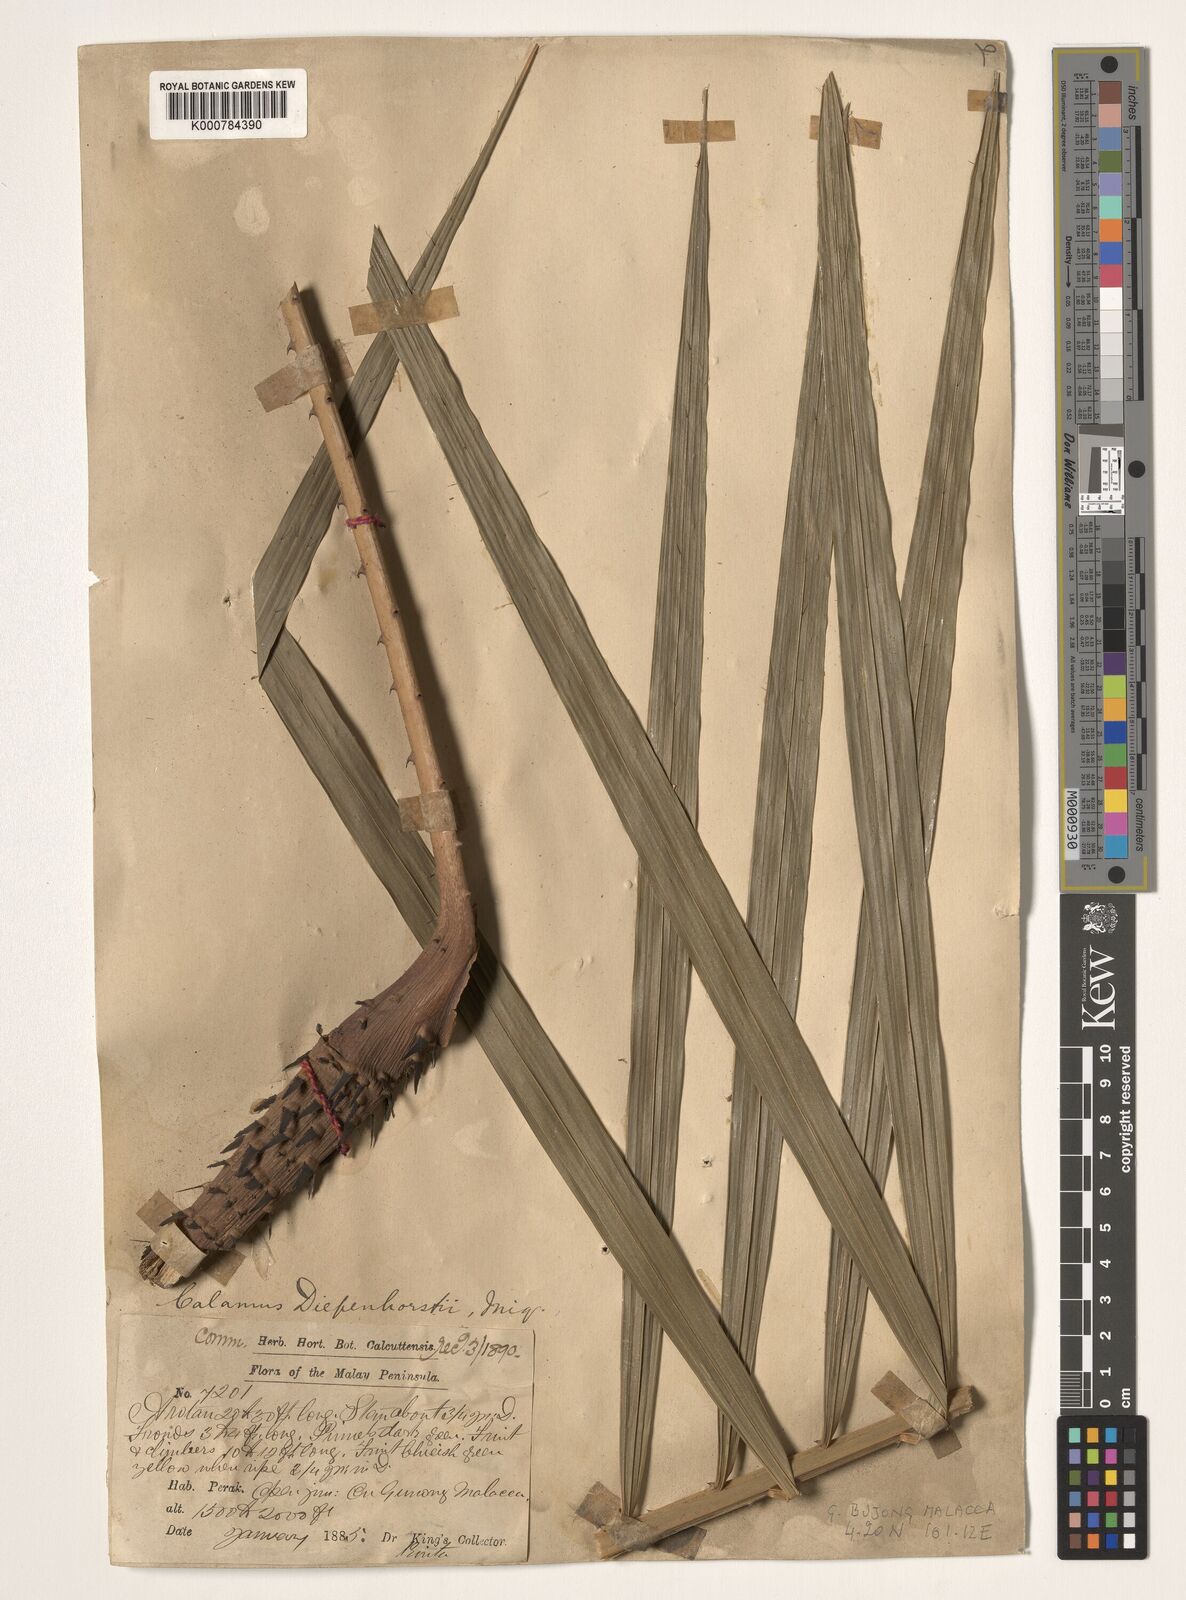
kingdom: Plantae
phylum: Tracheophyta
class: Liliopsida
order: Arecales
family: Arecaceae
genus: Calamus
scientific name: Calamus diepenhorstii
